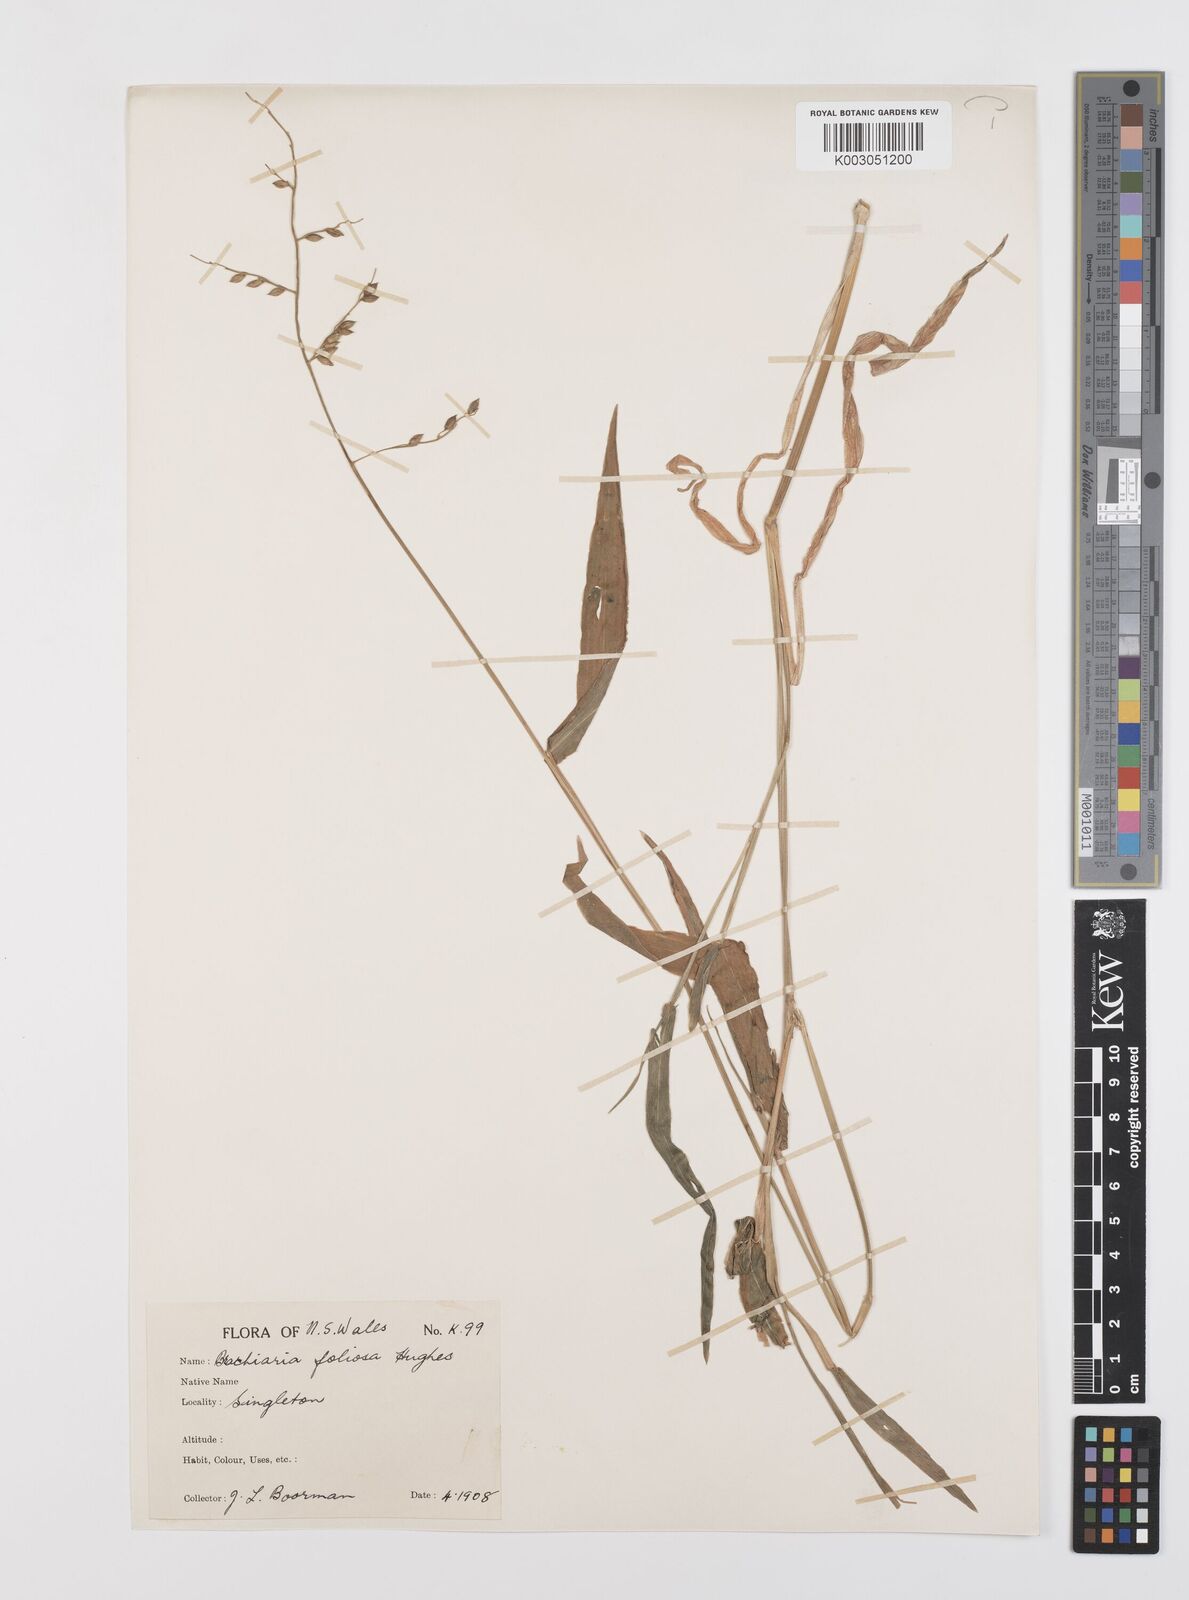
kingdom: Plantae
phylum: Tracheophyta
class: Liliopsida
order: Poales
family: Poaceae
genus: Urochloa
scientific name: Urochloa foliosa
